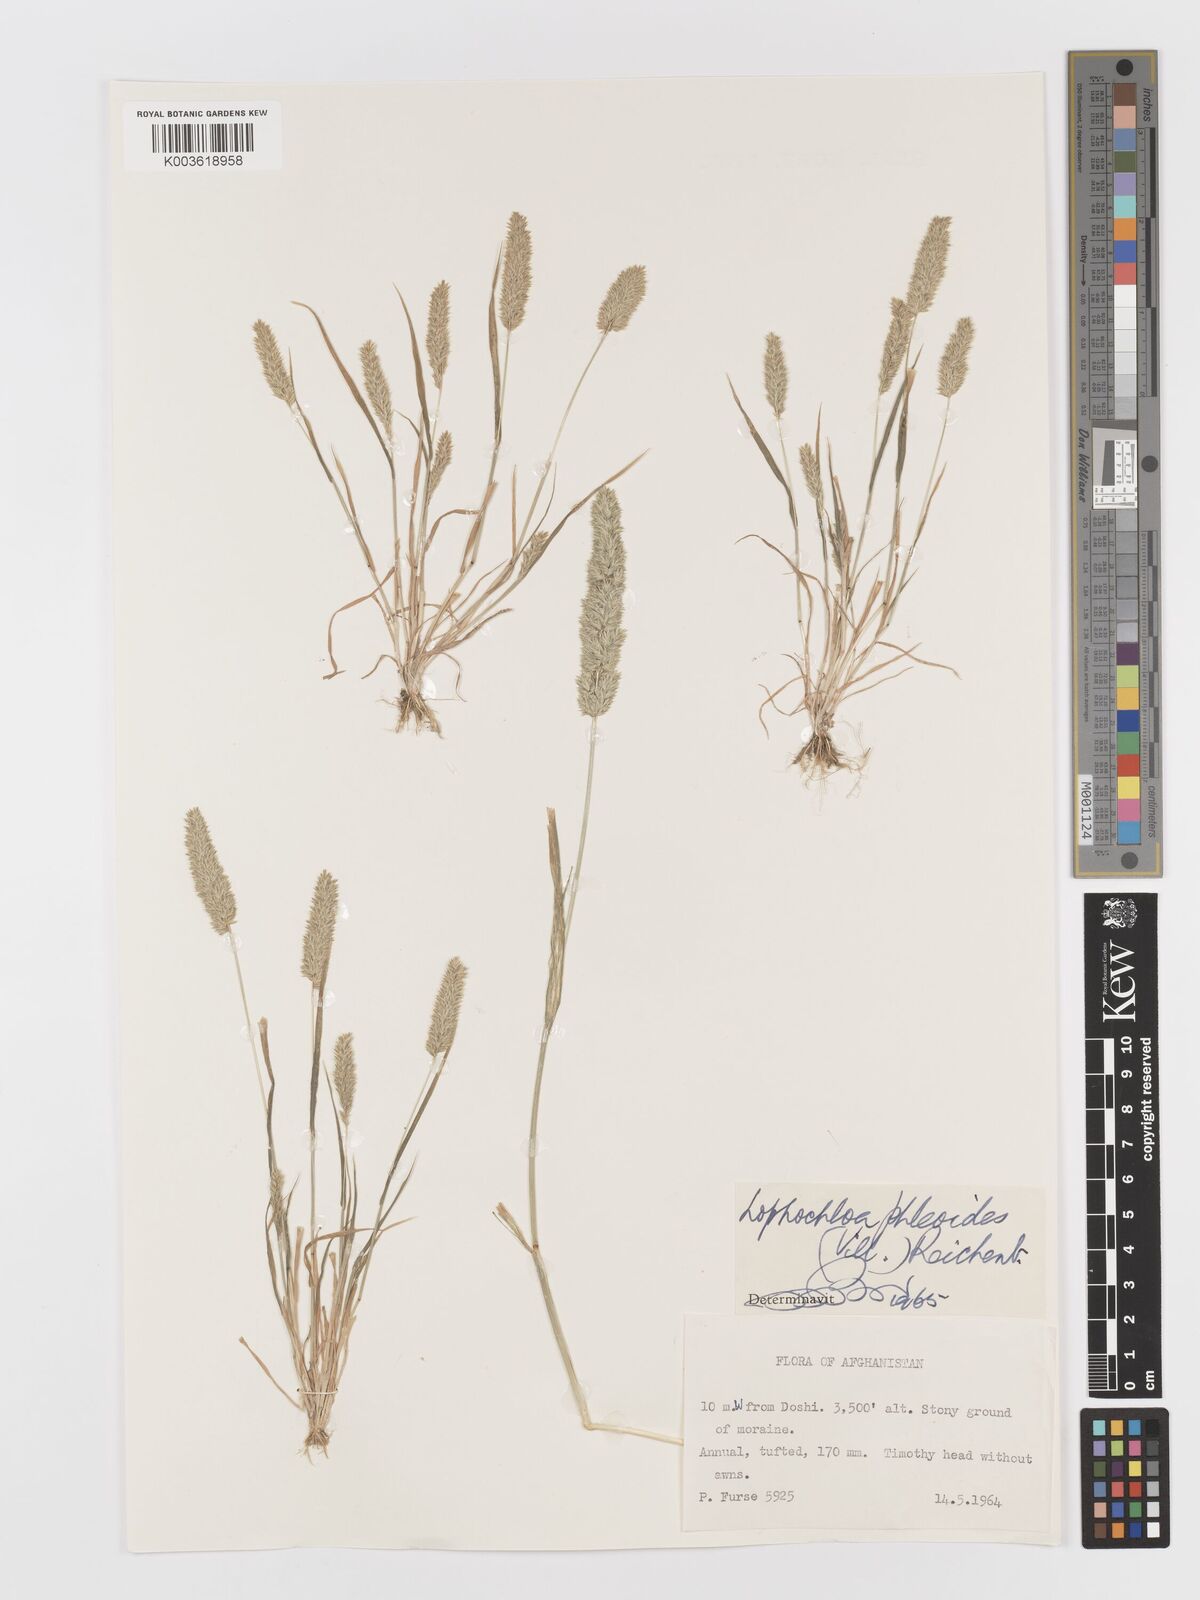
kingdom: Plantae
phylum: Tracheophyta
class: Liliopsida
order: Poales
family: Poaceae
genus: Rostraria
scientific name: Rostraria cristata
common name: Mediterranean hair-grass
